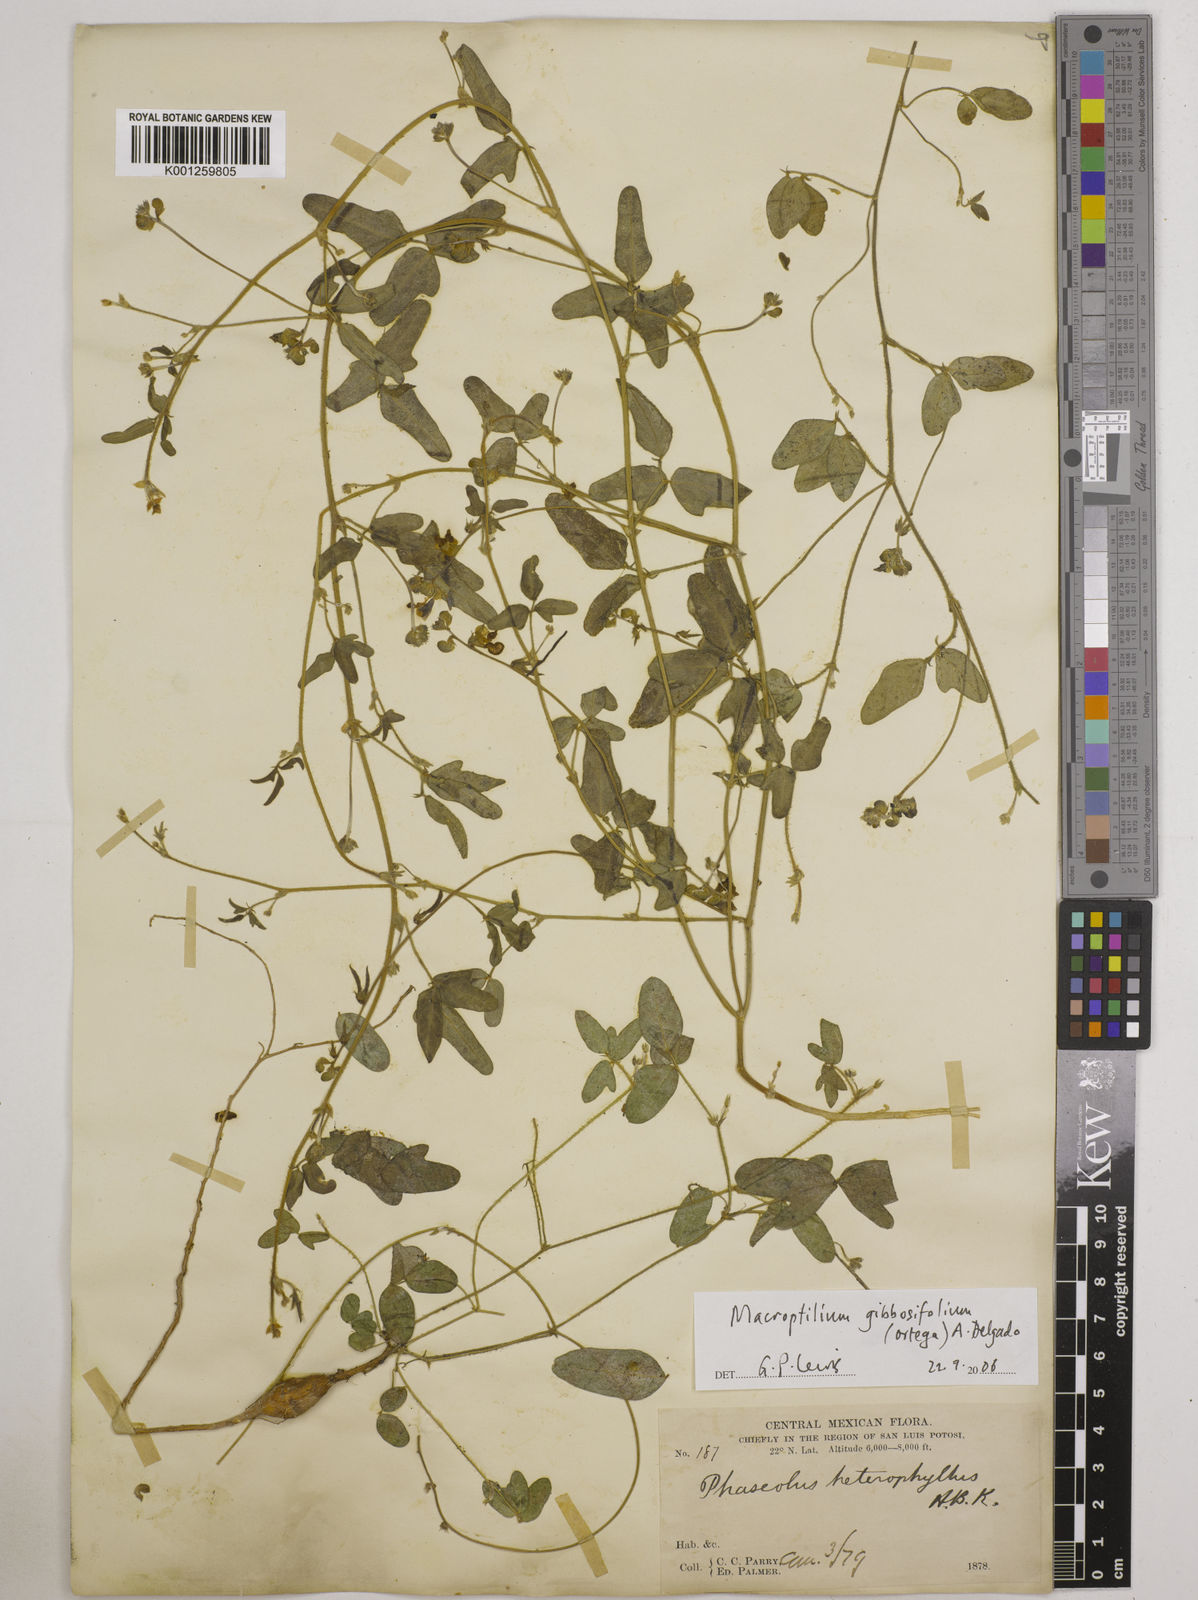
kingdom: Plantae
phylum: Tracheophyta
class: Magnoliopsida
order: Fabales
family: Fabaceae
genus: Macroptilium
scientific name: Macroptilium gibbosifolium
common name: Variableleaf bushbean
